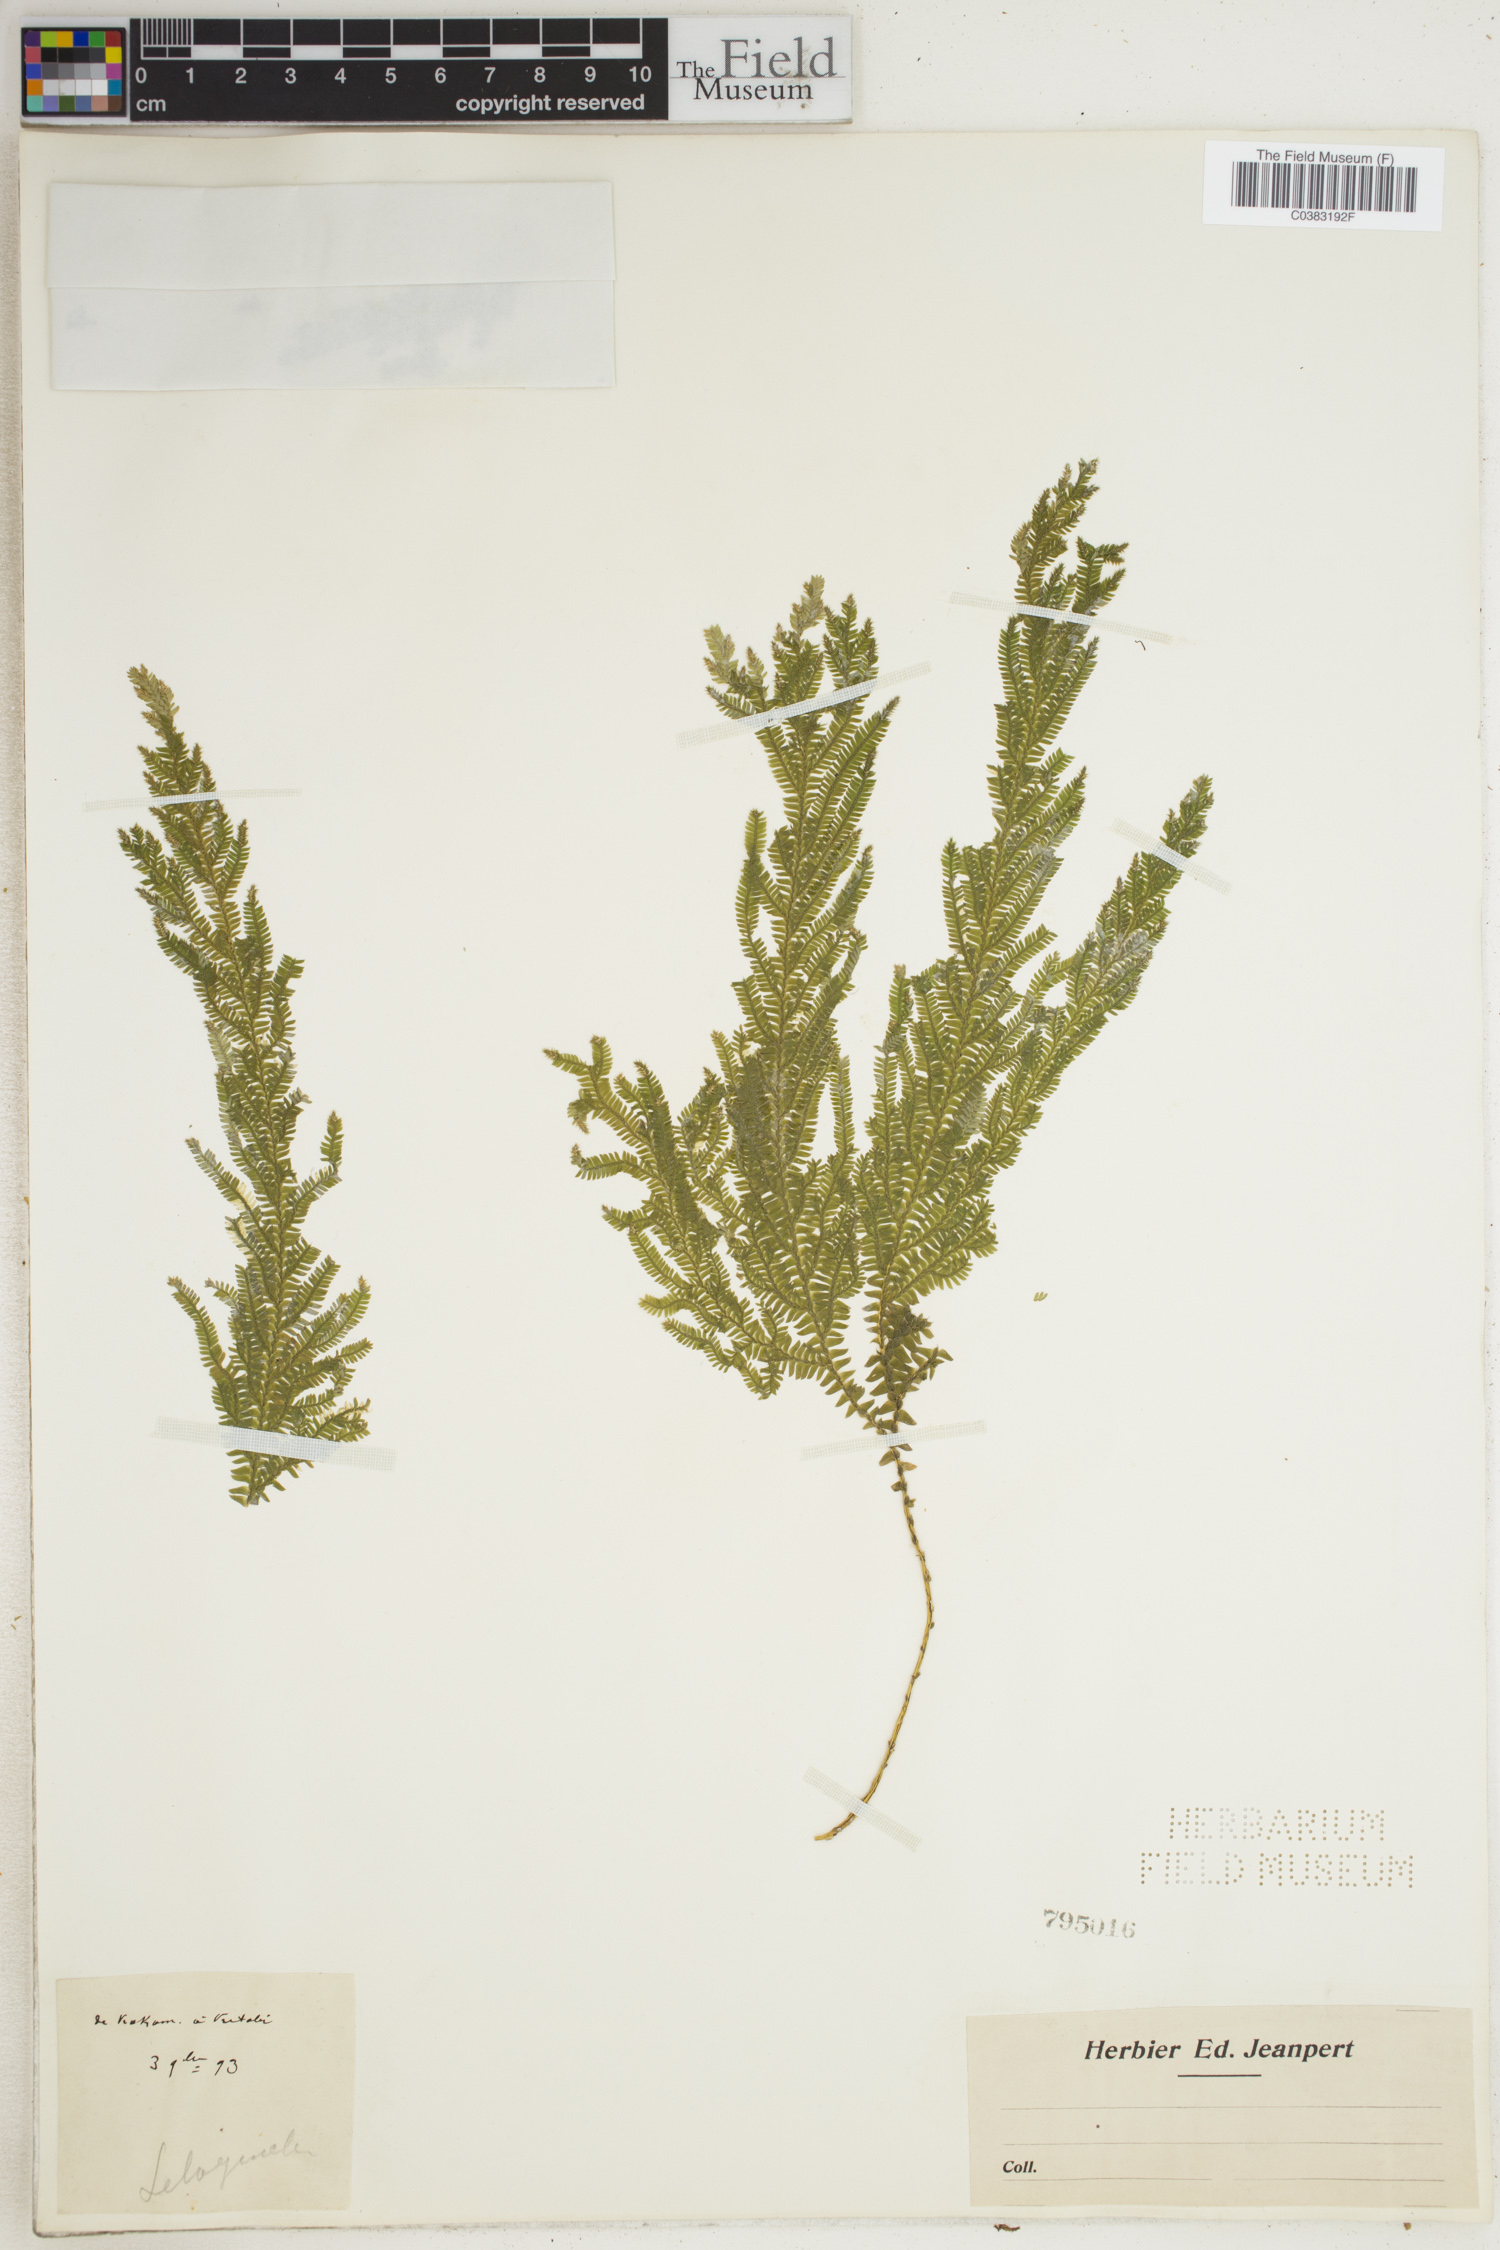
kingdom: Plantae
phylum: Tracheophyta
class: Lycopodiopsida
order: Selaginellales
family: Selaginellaceae
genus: Selaginella
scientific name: Selaginella
